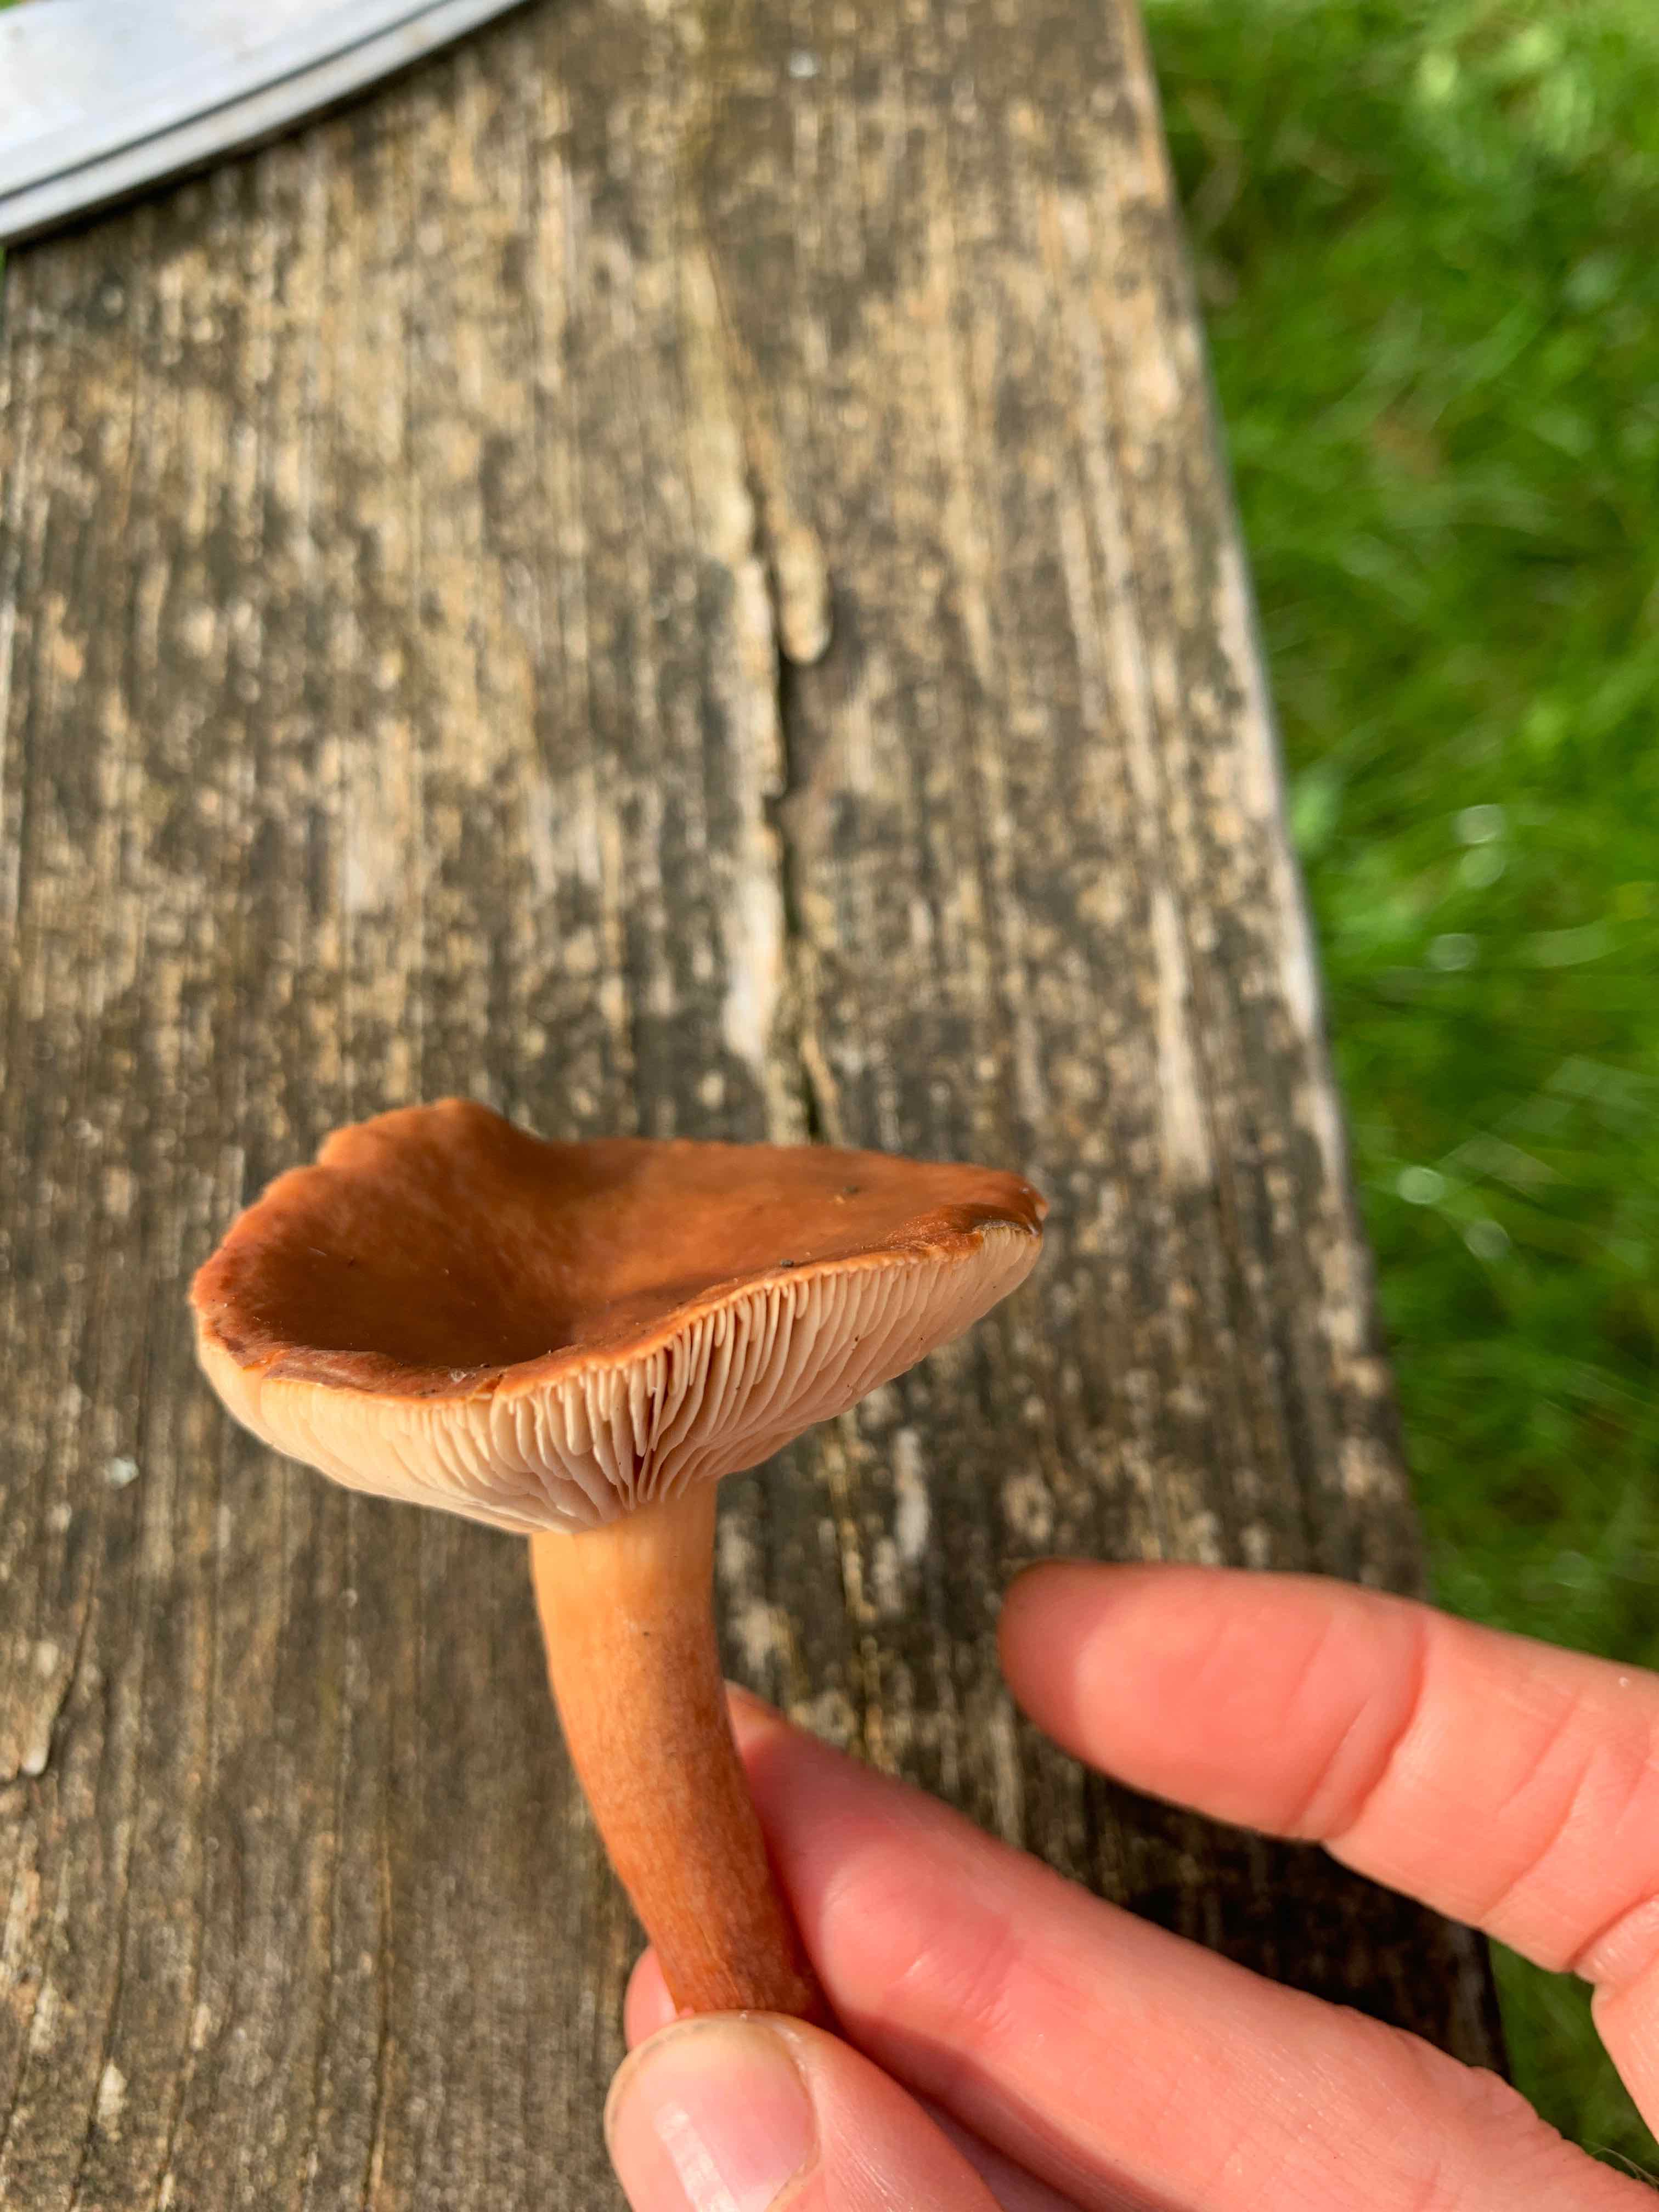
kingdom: Fungi
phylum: Basidiomycota
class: Agaricomycetes
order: Russulales
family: Russulaceae
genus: Lactarius
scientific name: Lactarius
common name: mælkehat
